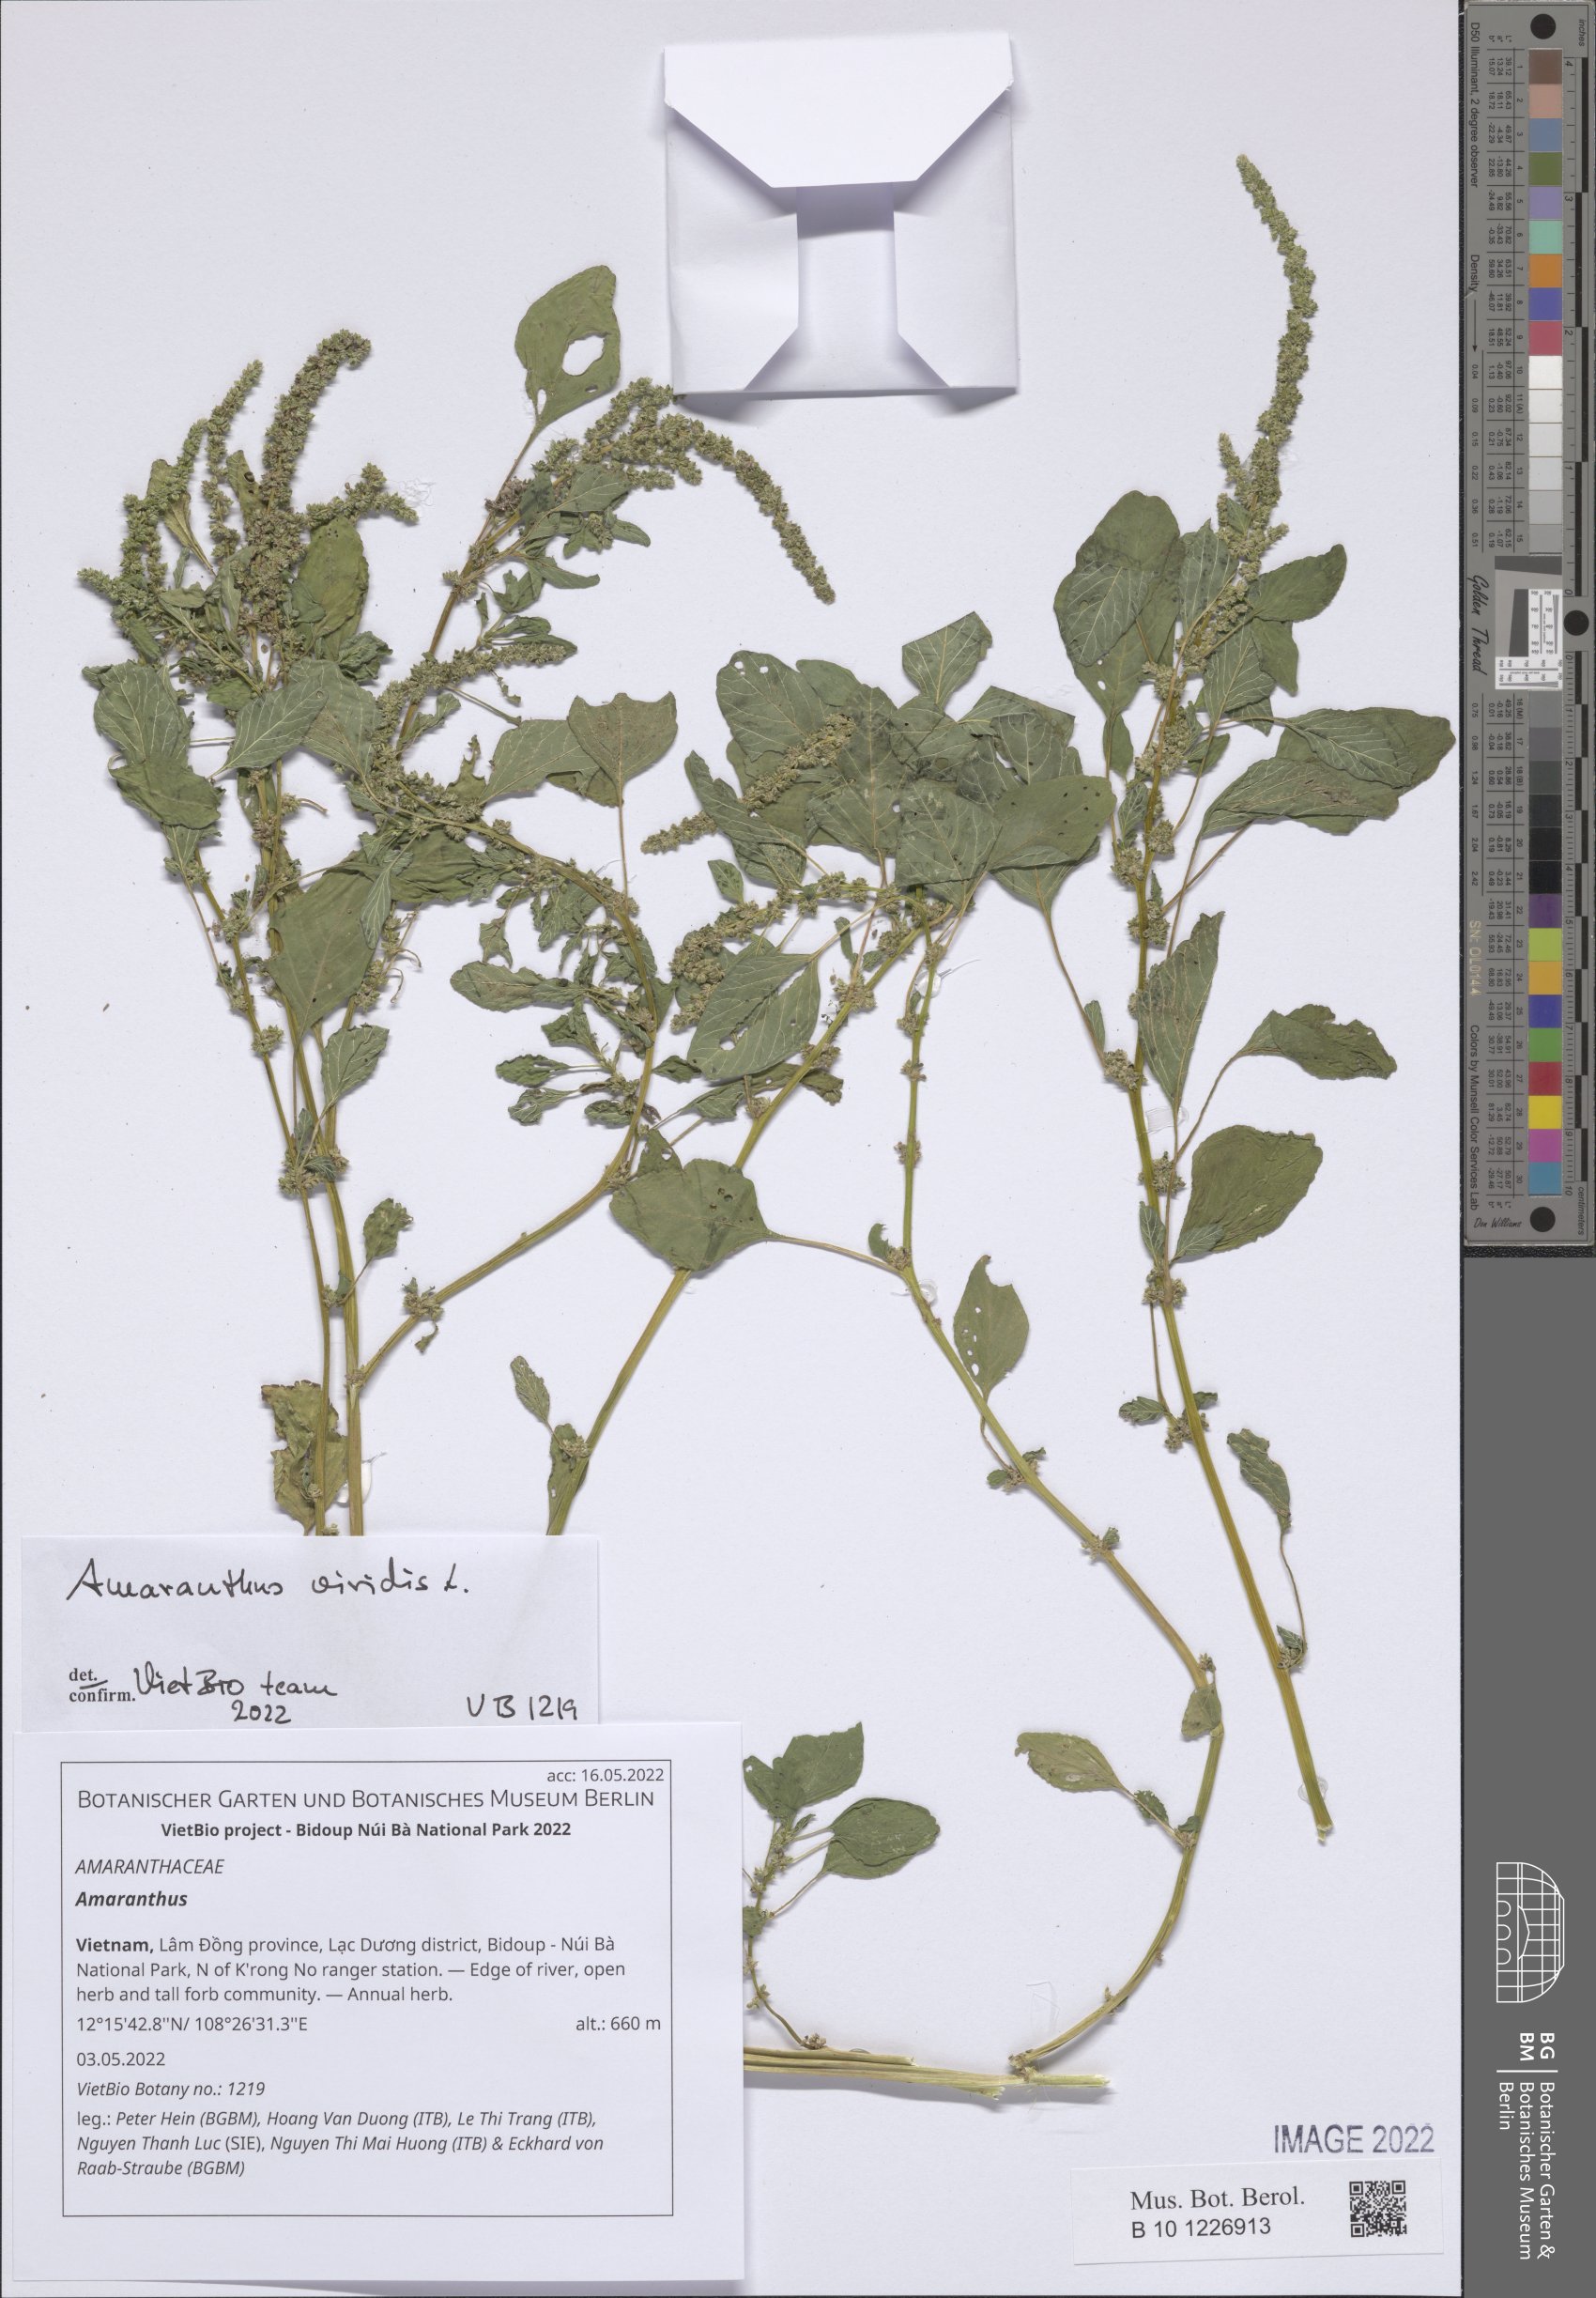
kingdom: Plantae
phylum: Tracheophyta
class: Magnoliopsida
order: Caryophyllales
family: Amaranthaceae
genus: Amaranthus
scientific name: Amaranthus
